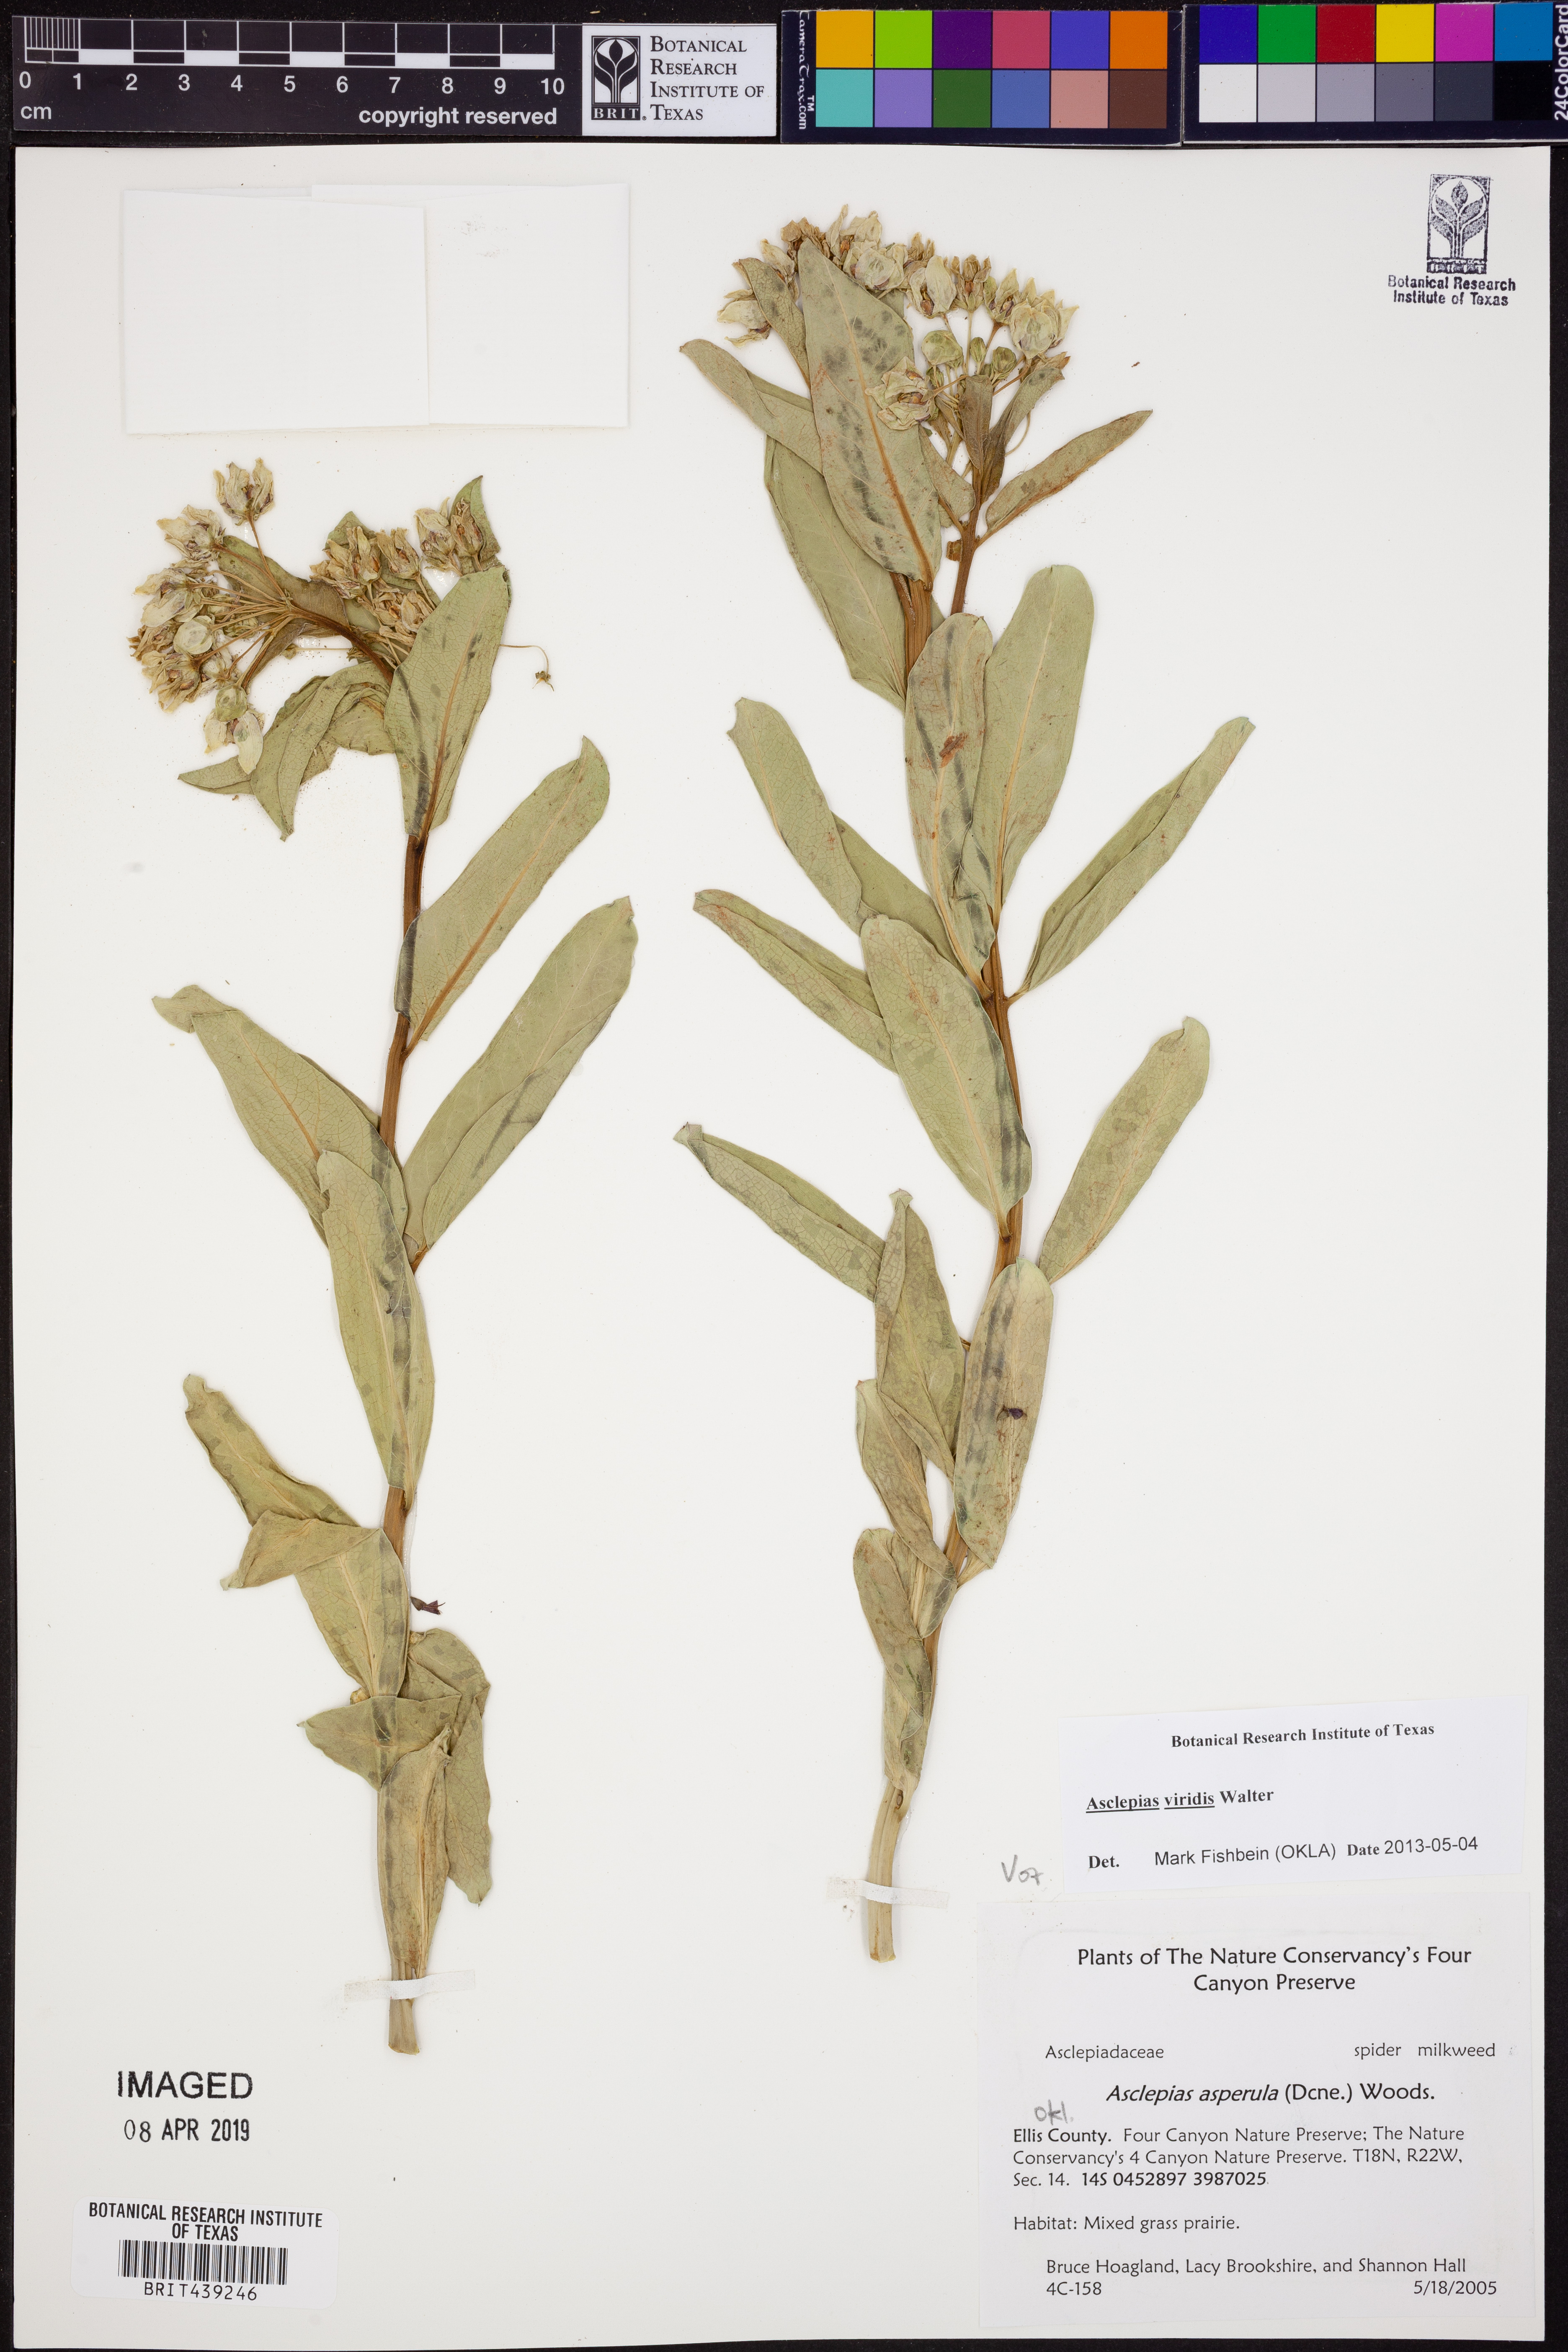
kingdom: Plantae
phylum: Tracheophyta
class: Magnoliopsida
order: Gentianales
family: Apocynaceae
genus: Asclepias
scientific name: Asclepias viridis
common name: Antelope-horns
